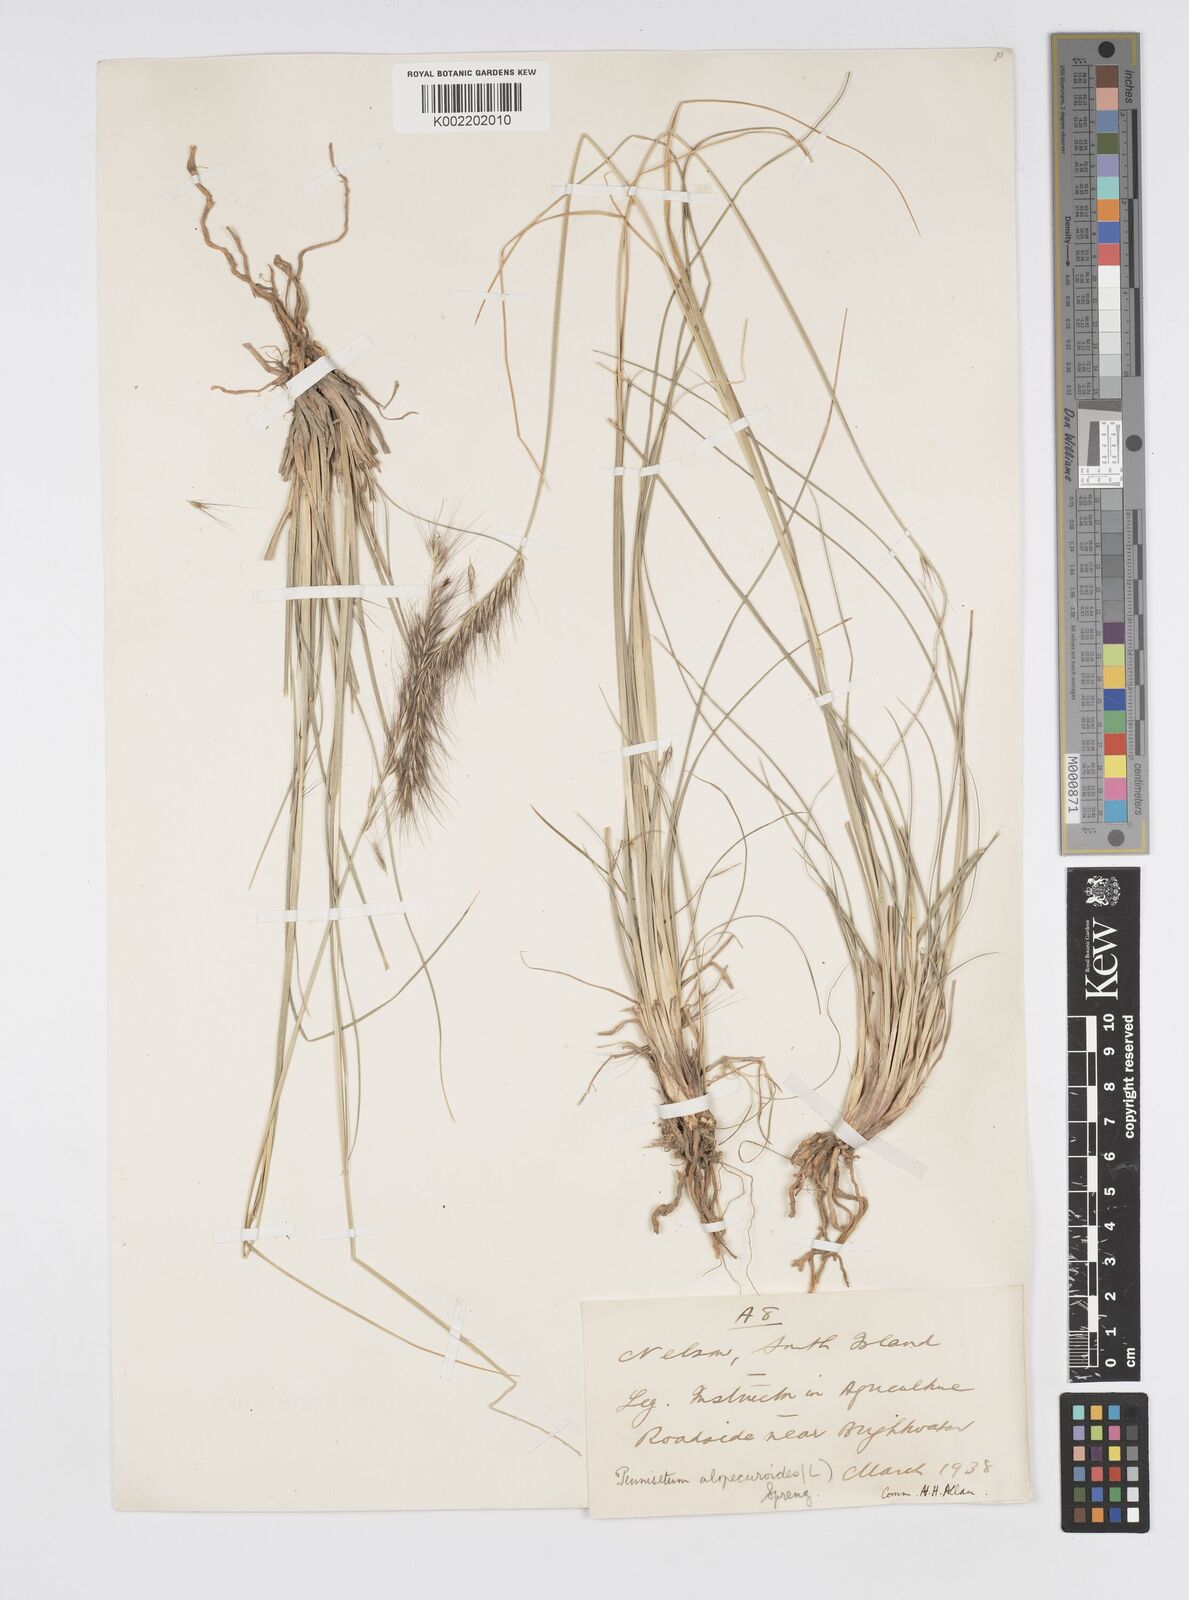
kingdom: Plantae
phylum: Tracheophyta
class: Liliopsida
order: Poales
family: Poaceae
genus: Cenchrus
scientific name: Cenchrus alopecuroides
